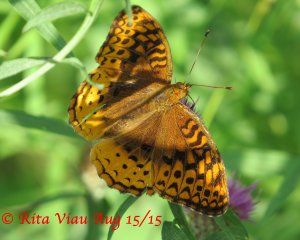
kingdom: Animalia
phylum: Arthropoda
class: Insecta
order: Lepidoptera
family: Nymphalidae
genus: Speyeria
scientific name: Speyeria cybele
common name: Great Spangled Fritillary
